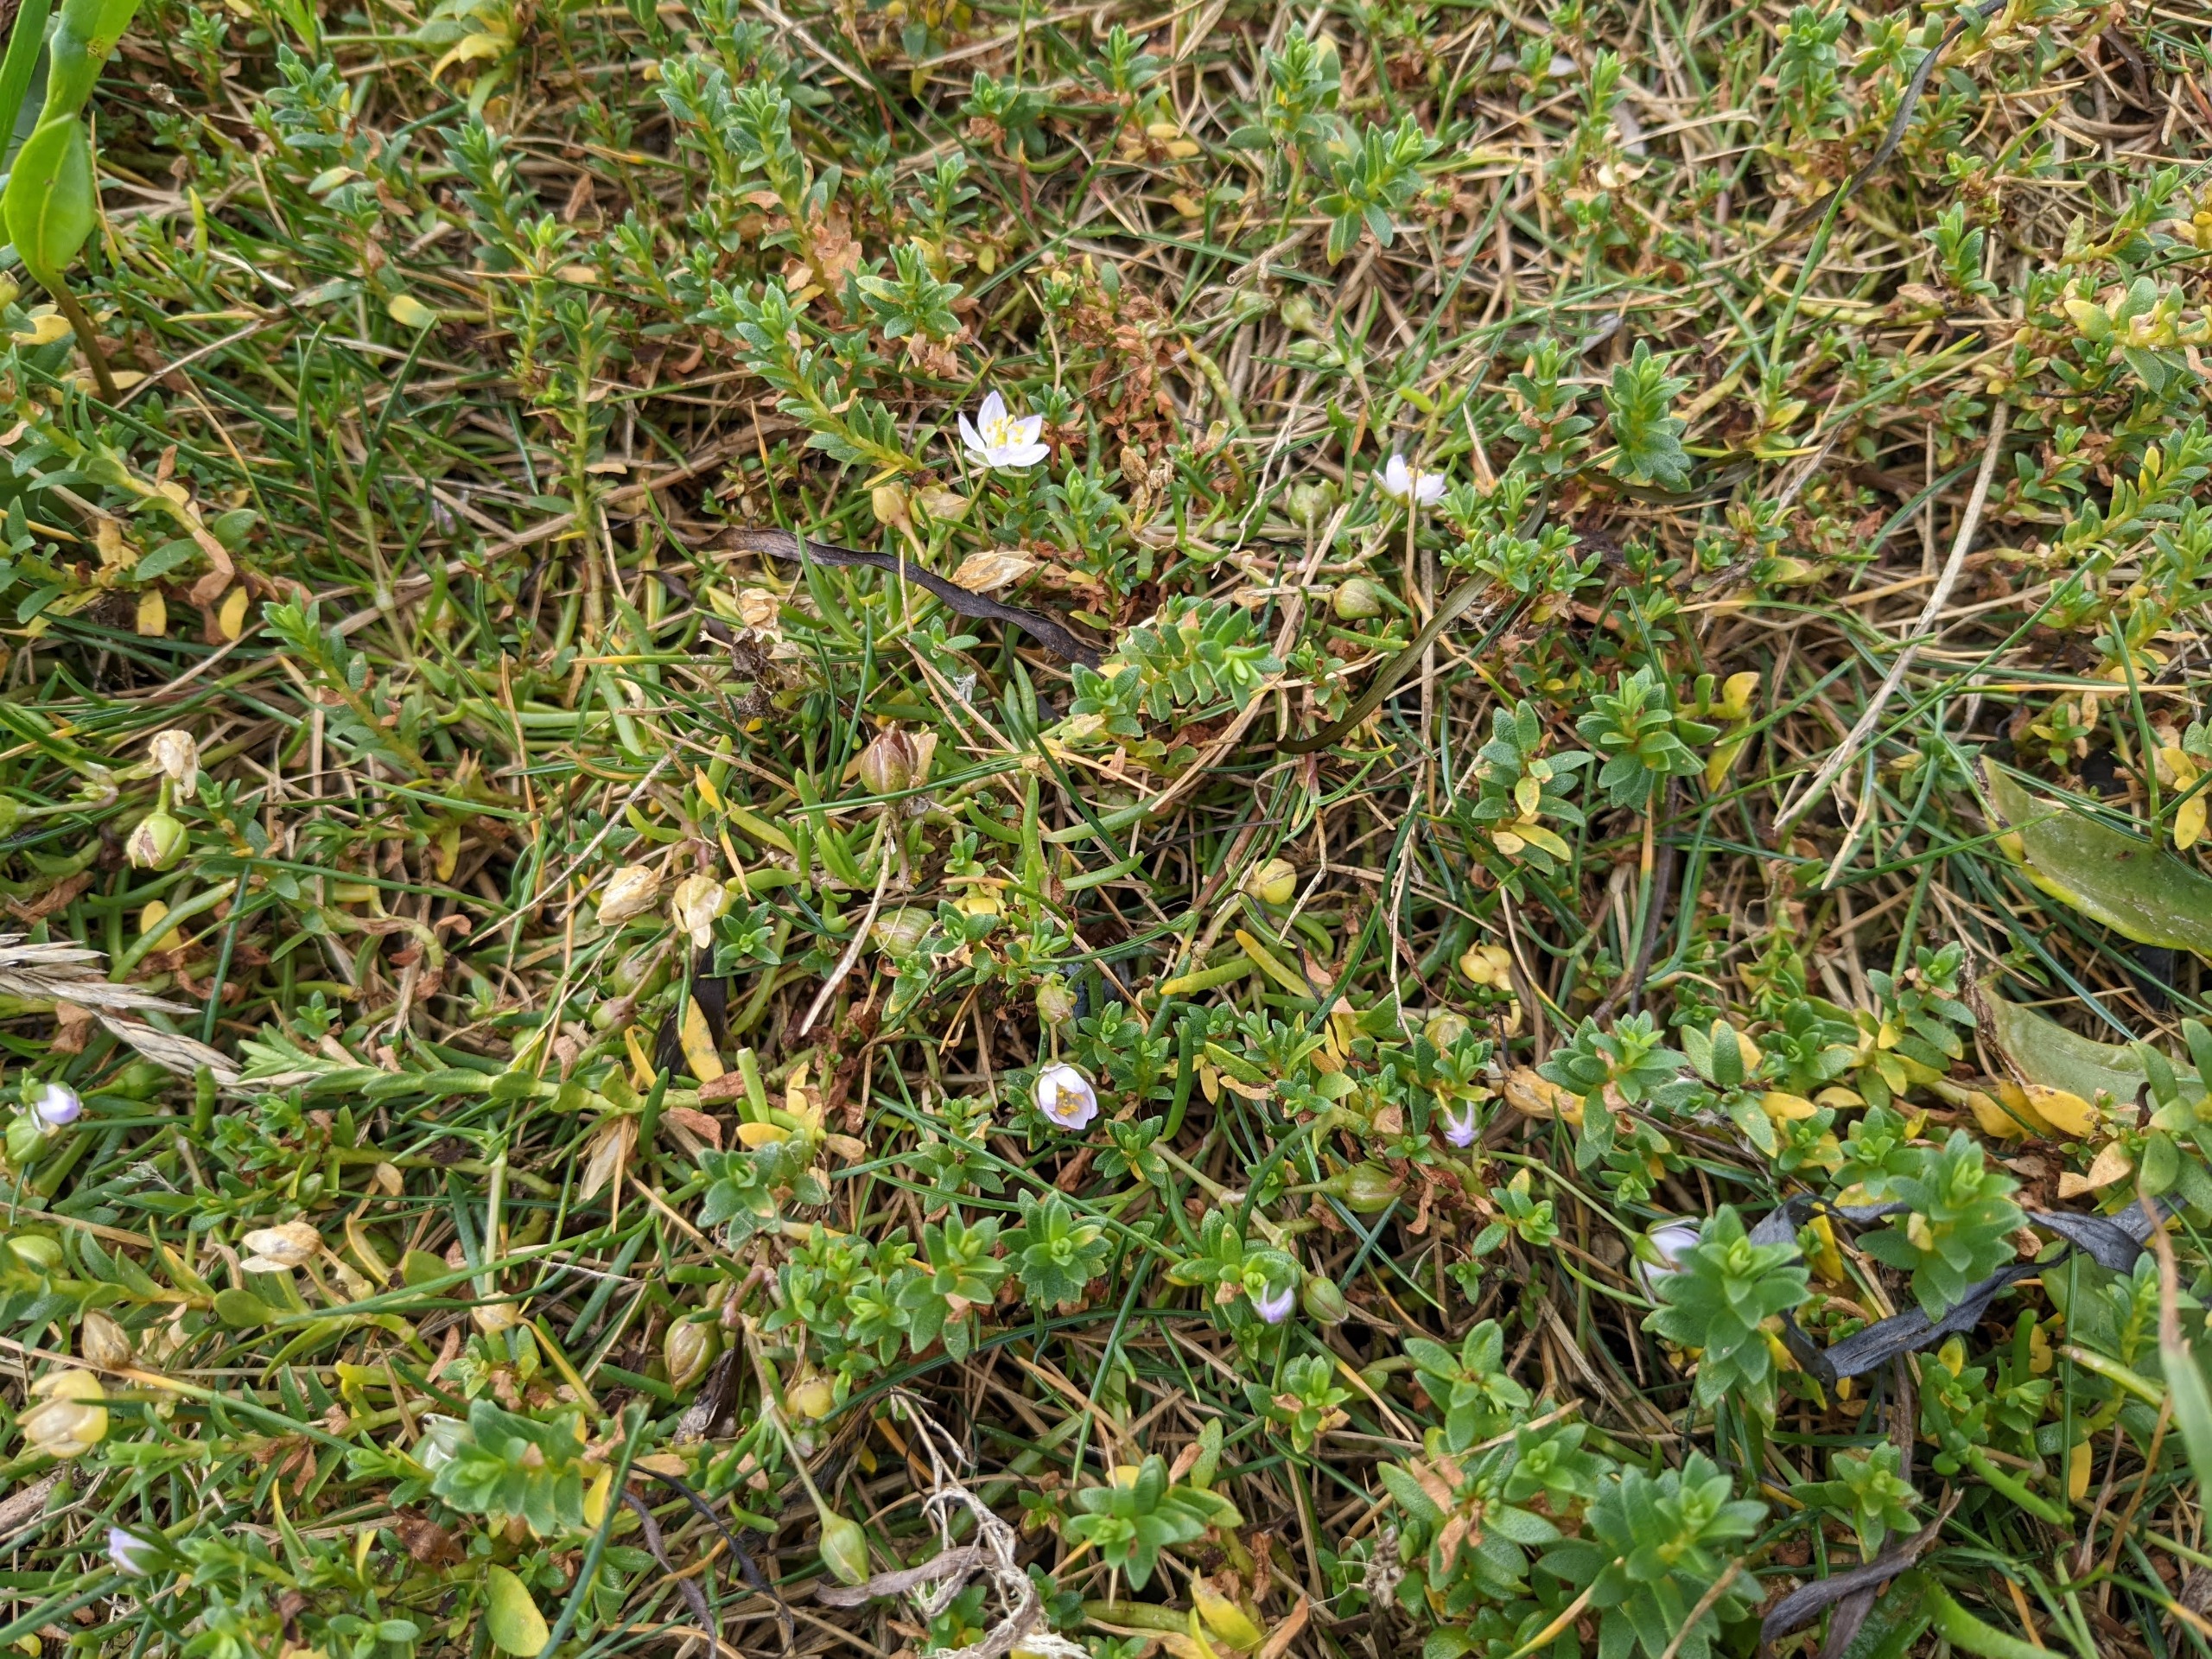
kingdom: Plantae
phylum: Tracheophyta
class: Magnoliopsida
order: Caryophyllales
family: Caryophyllaceae
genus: Spergularia
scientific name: Spergularia media
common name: Vingefrøet hindeknæ
